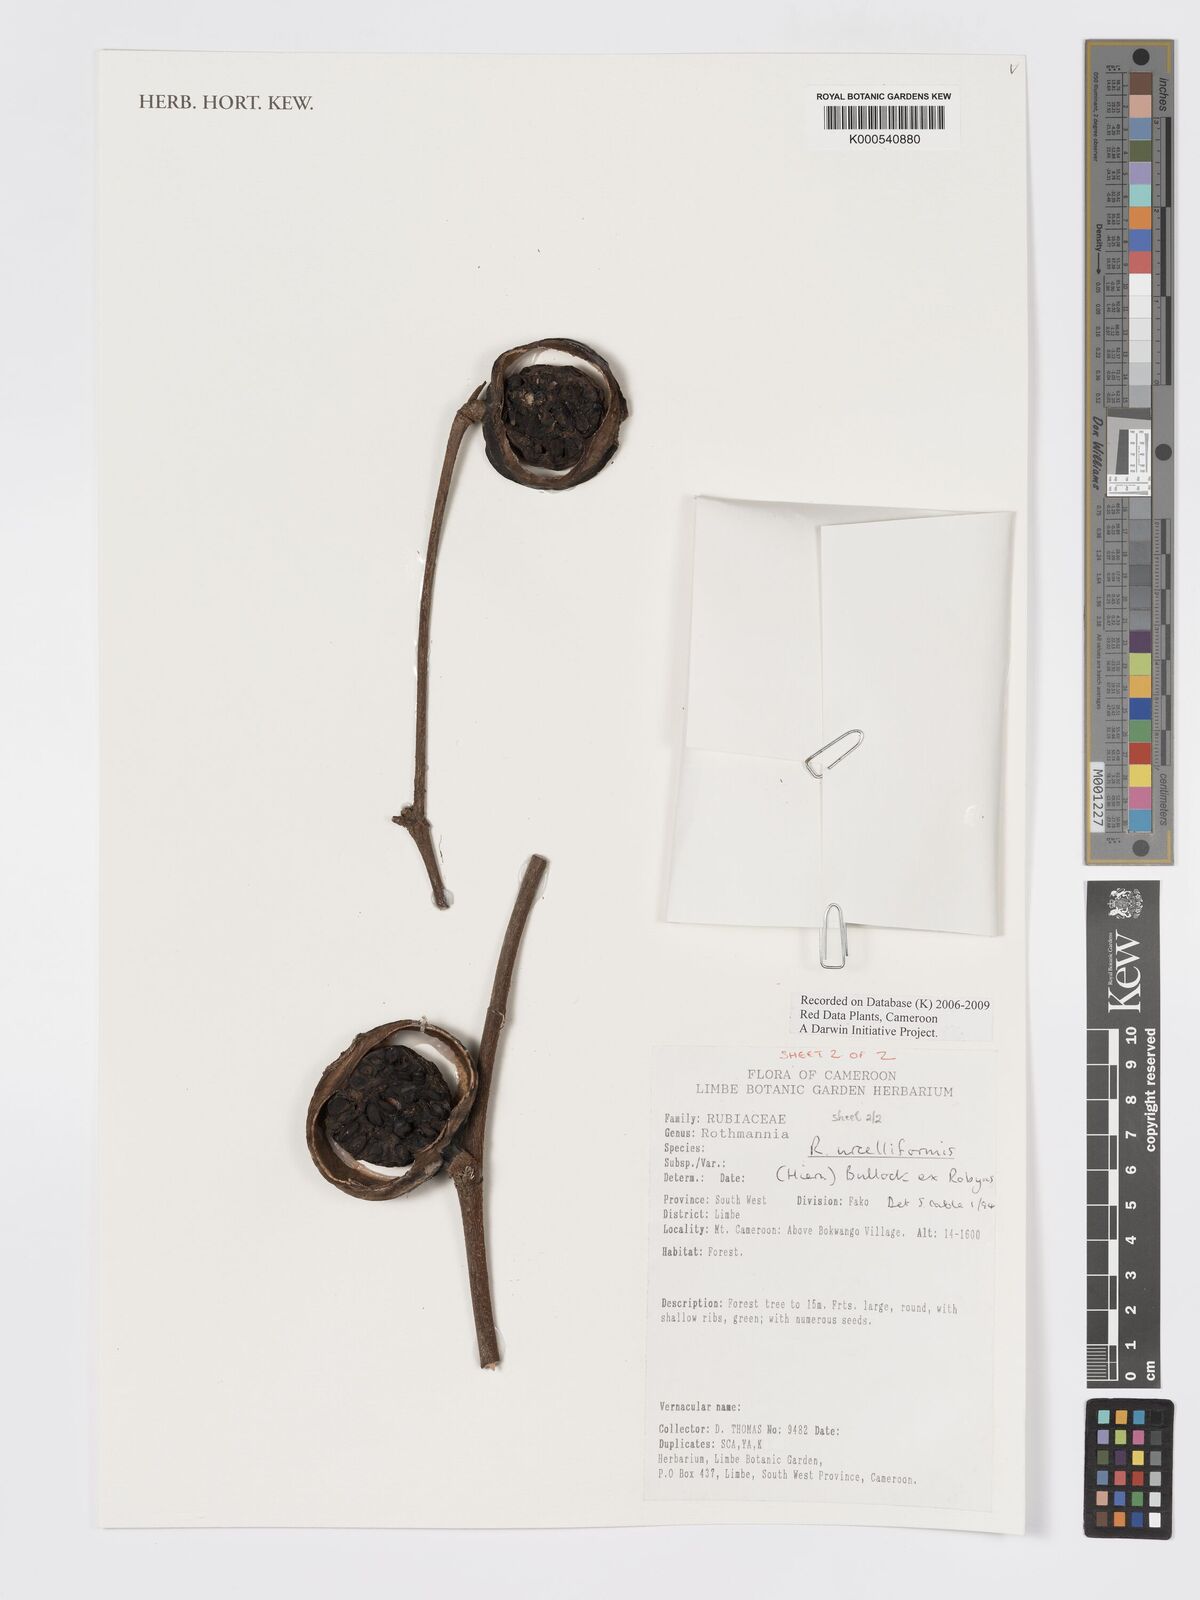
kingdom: Plantae
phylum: Tracheophyta
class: Magnoliopsida
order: Gentianales
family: Rubiaceae
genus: Rothmannia
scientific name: Rothmannia urcelliformis
